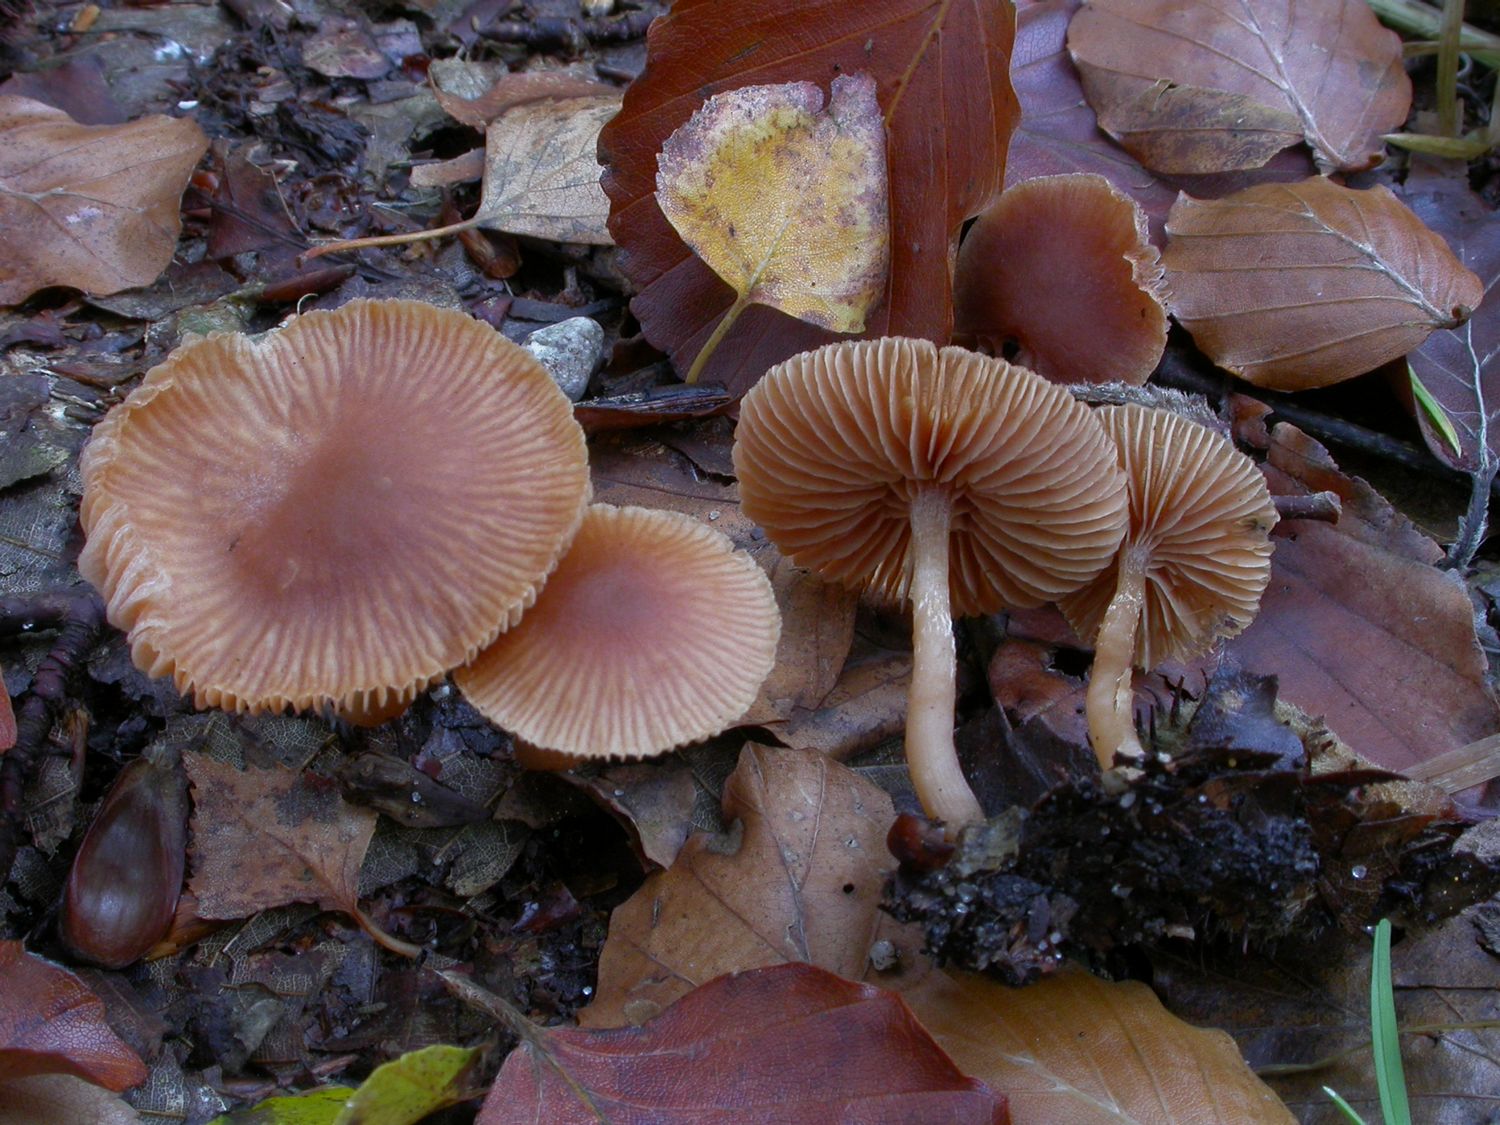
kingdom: Fungi
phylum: Basidiomycota
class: Agaricomycetes
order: Agaricales
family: Tubariaceae
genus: Tubaria
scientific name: Tubaria furfuracea
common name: kliddet fnughat
